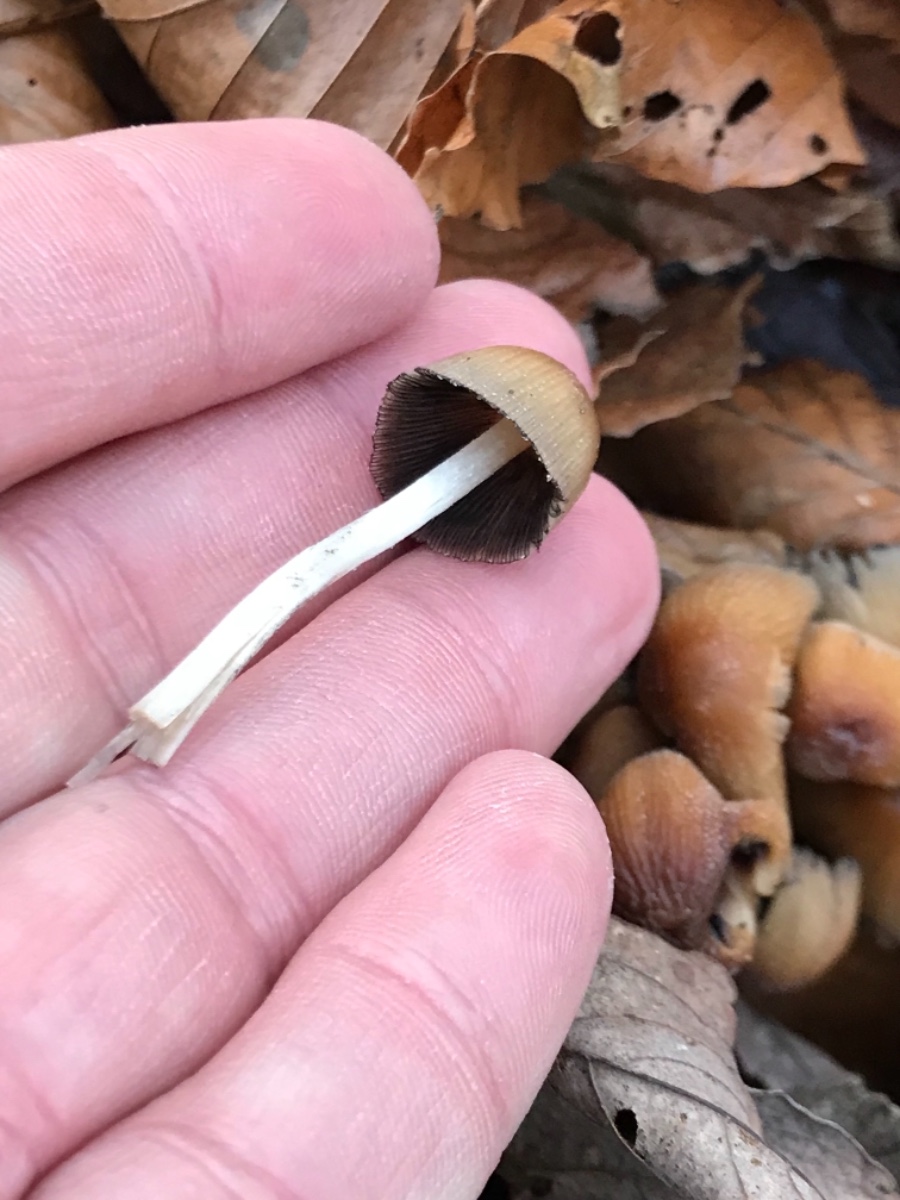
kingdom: Fungi
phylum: Basidiomycota
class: Agaricomycetes
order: Agaricales
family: Psathyrellaceae
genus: Coprinellus
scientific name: Coprinellus micaceus
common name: glimmer-blækhat
